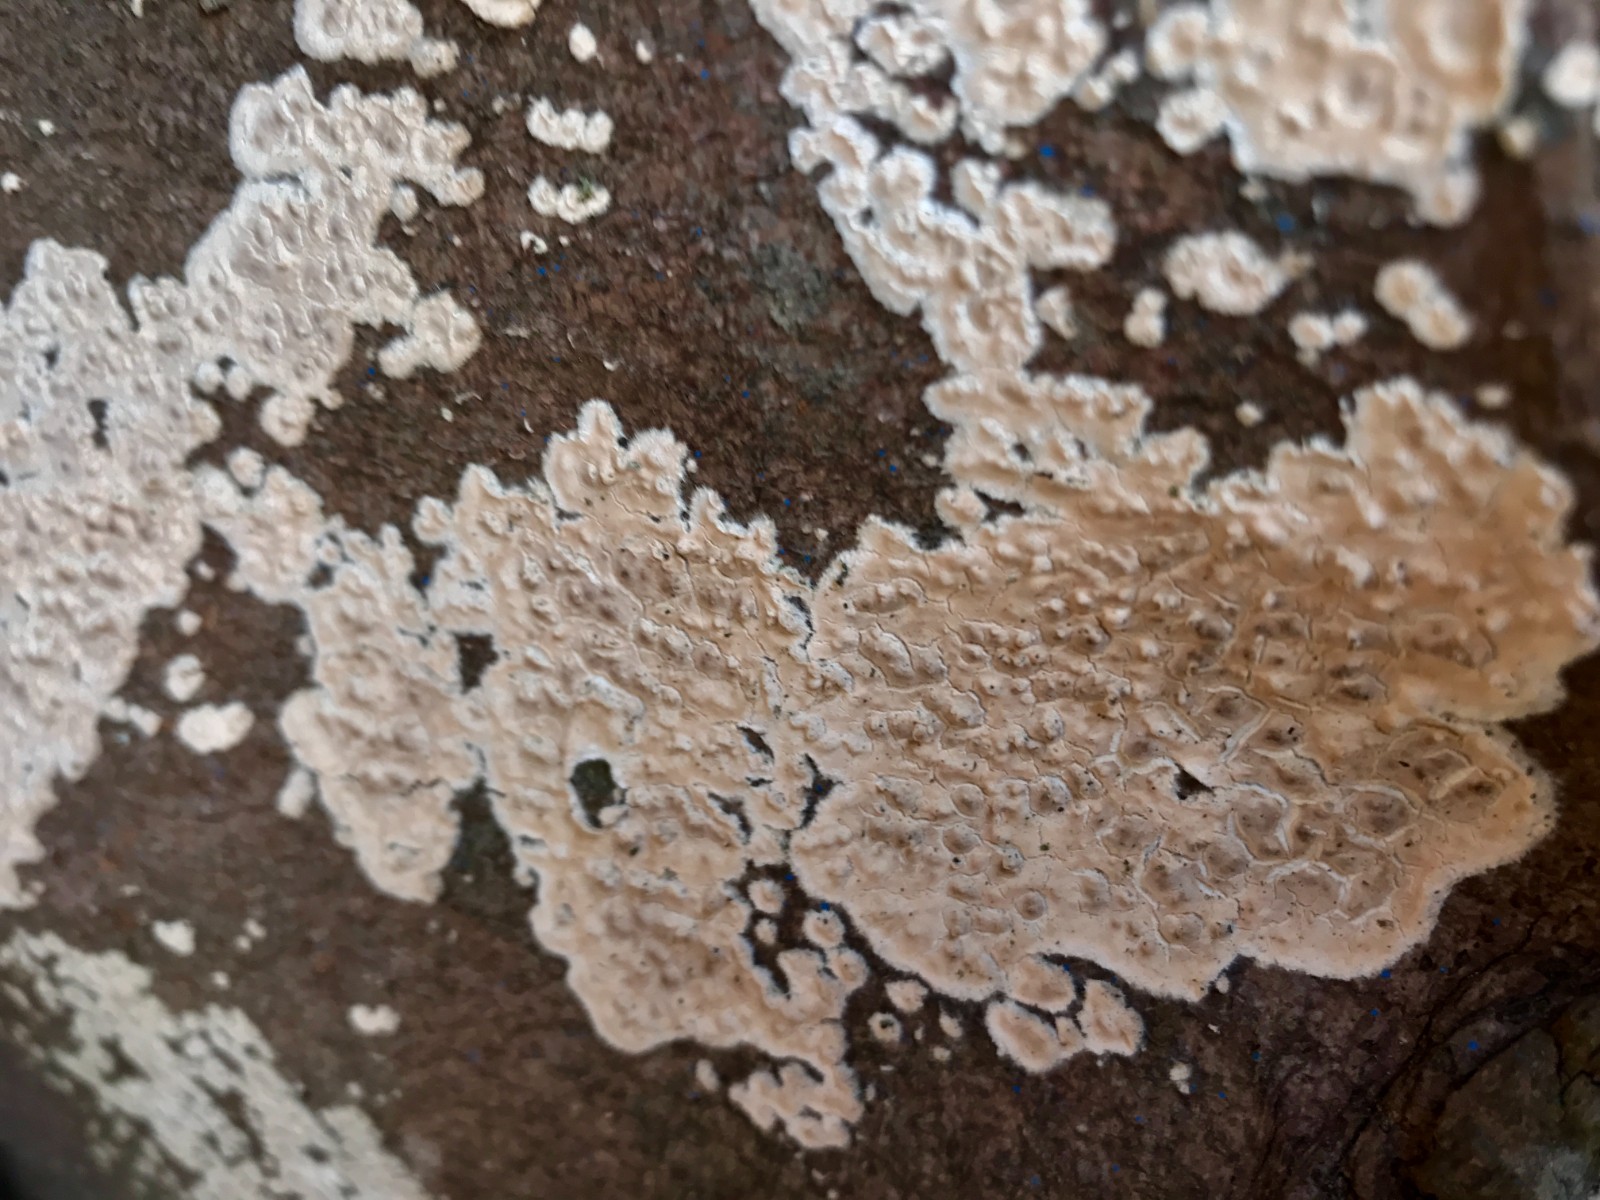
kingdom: Fungi
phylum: Basidiomycota
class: Agaricomycetes
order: Agaricales
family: Physalacriaceae
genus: Cylindrobasidium
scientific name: Cylindrobasidium evolvens
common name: sprækkehinde
